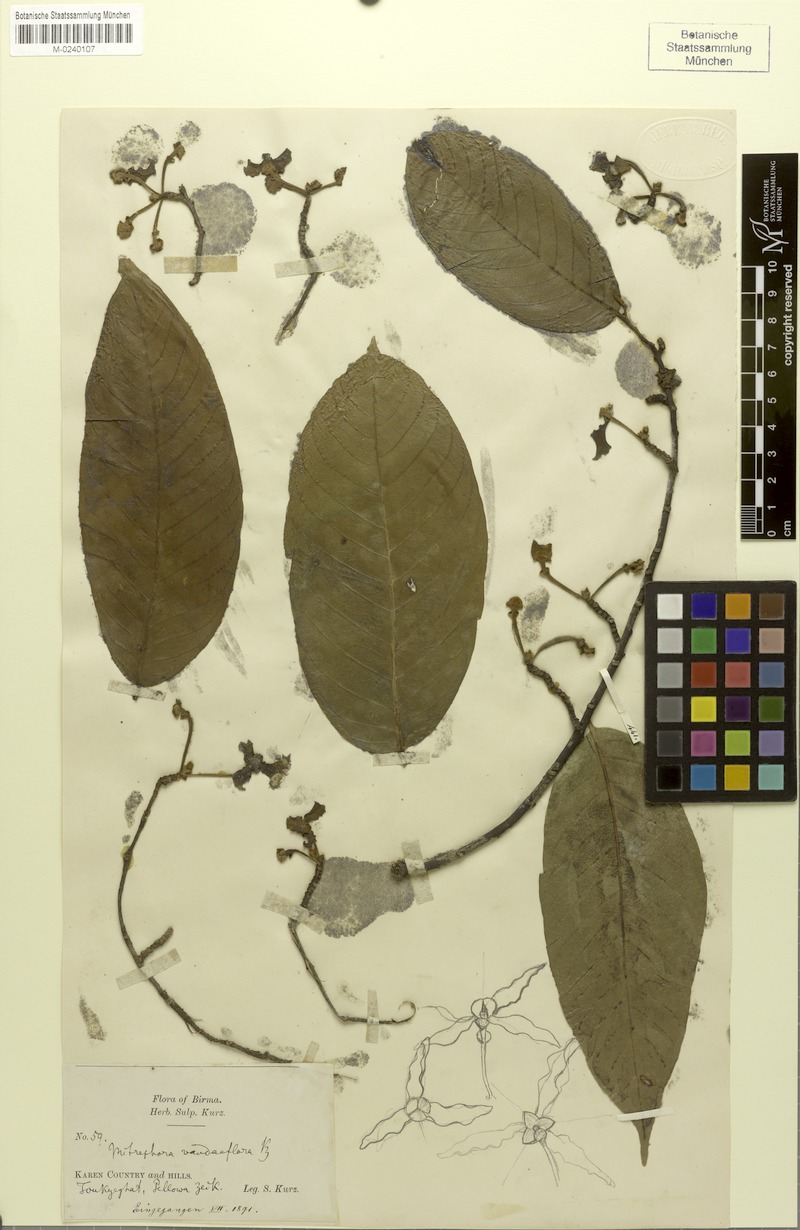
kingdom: Plantae
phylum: Tracheophyta
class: Magnoliopsida
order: Magnoliales
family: Annonaceae
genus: Mitrephora
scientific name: Mitrephora tomentosa
